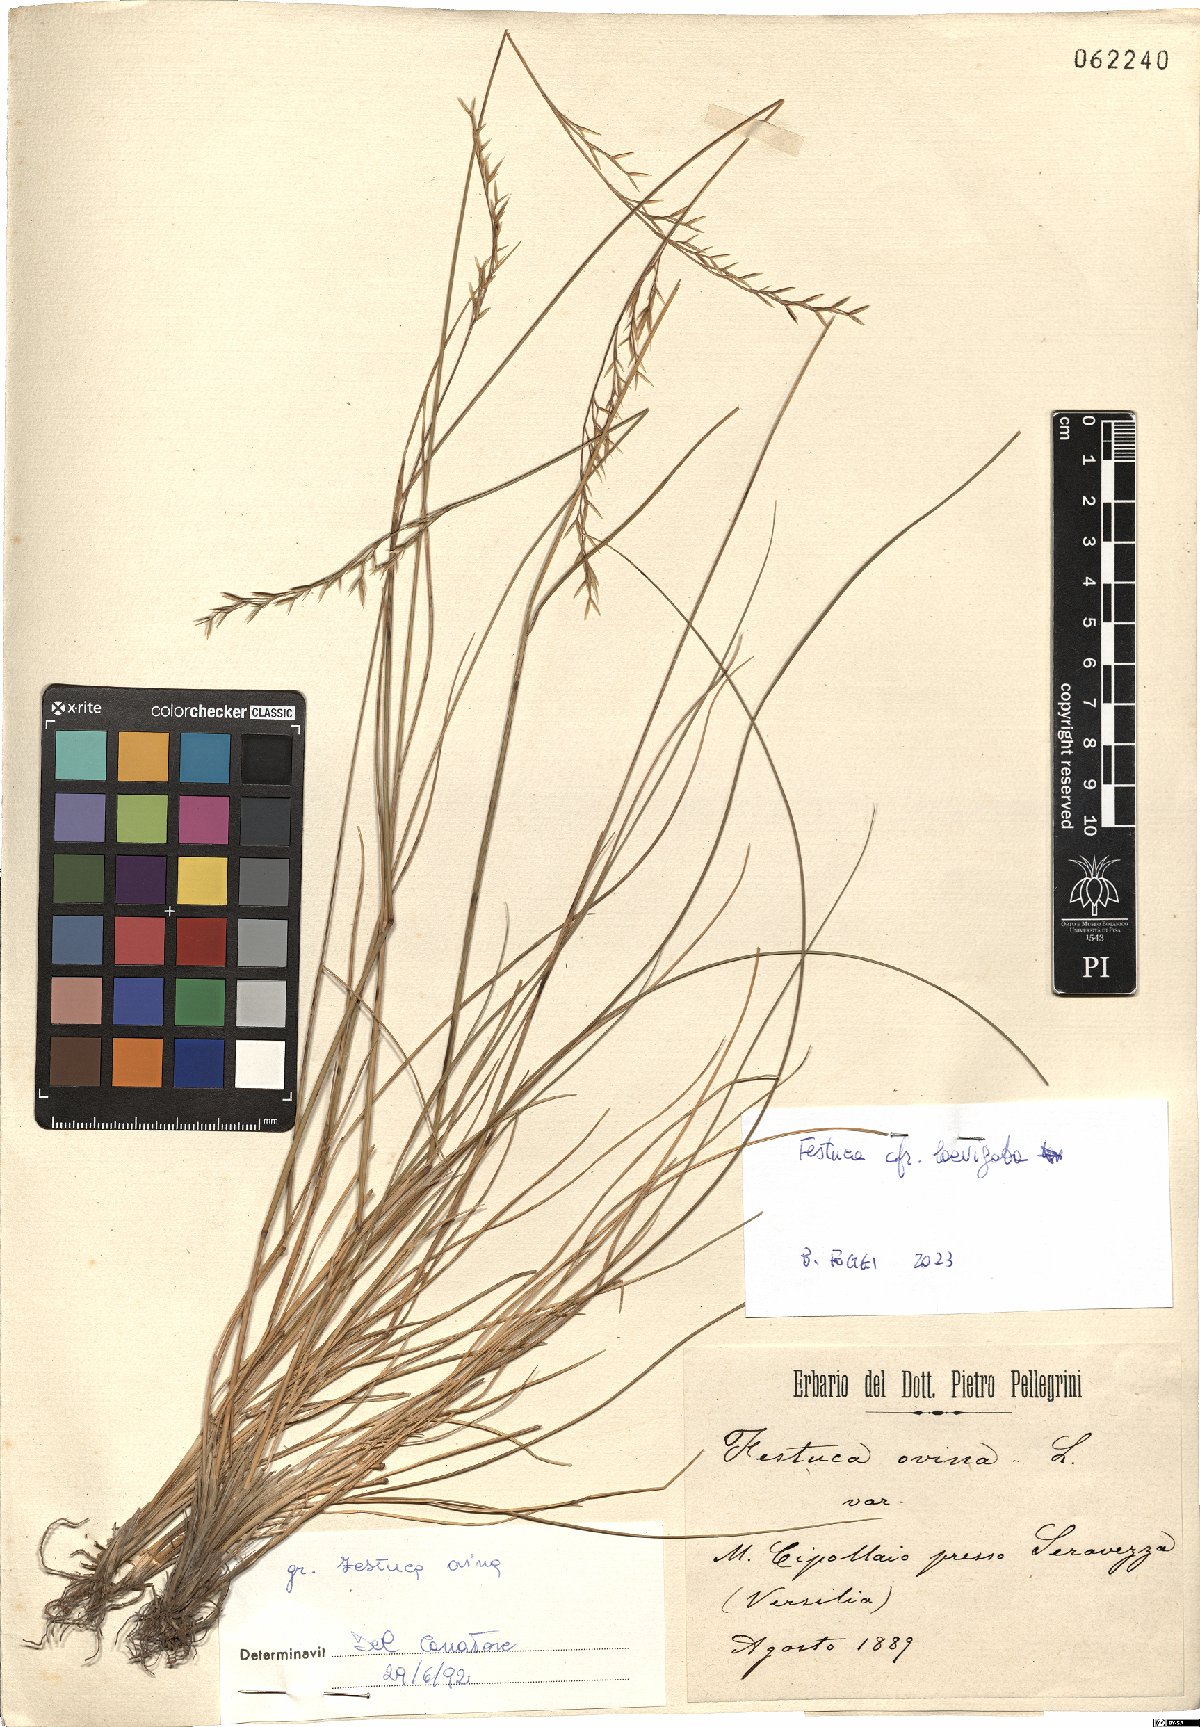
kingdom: Plantae
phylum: Tracheophyta
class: Liliopsida
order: Poales
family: Poaceae
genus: Festuca
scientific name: Festuca laevigata
